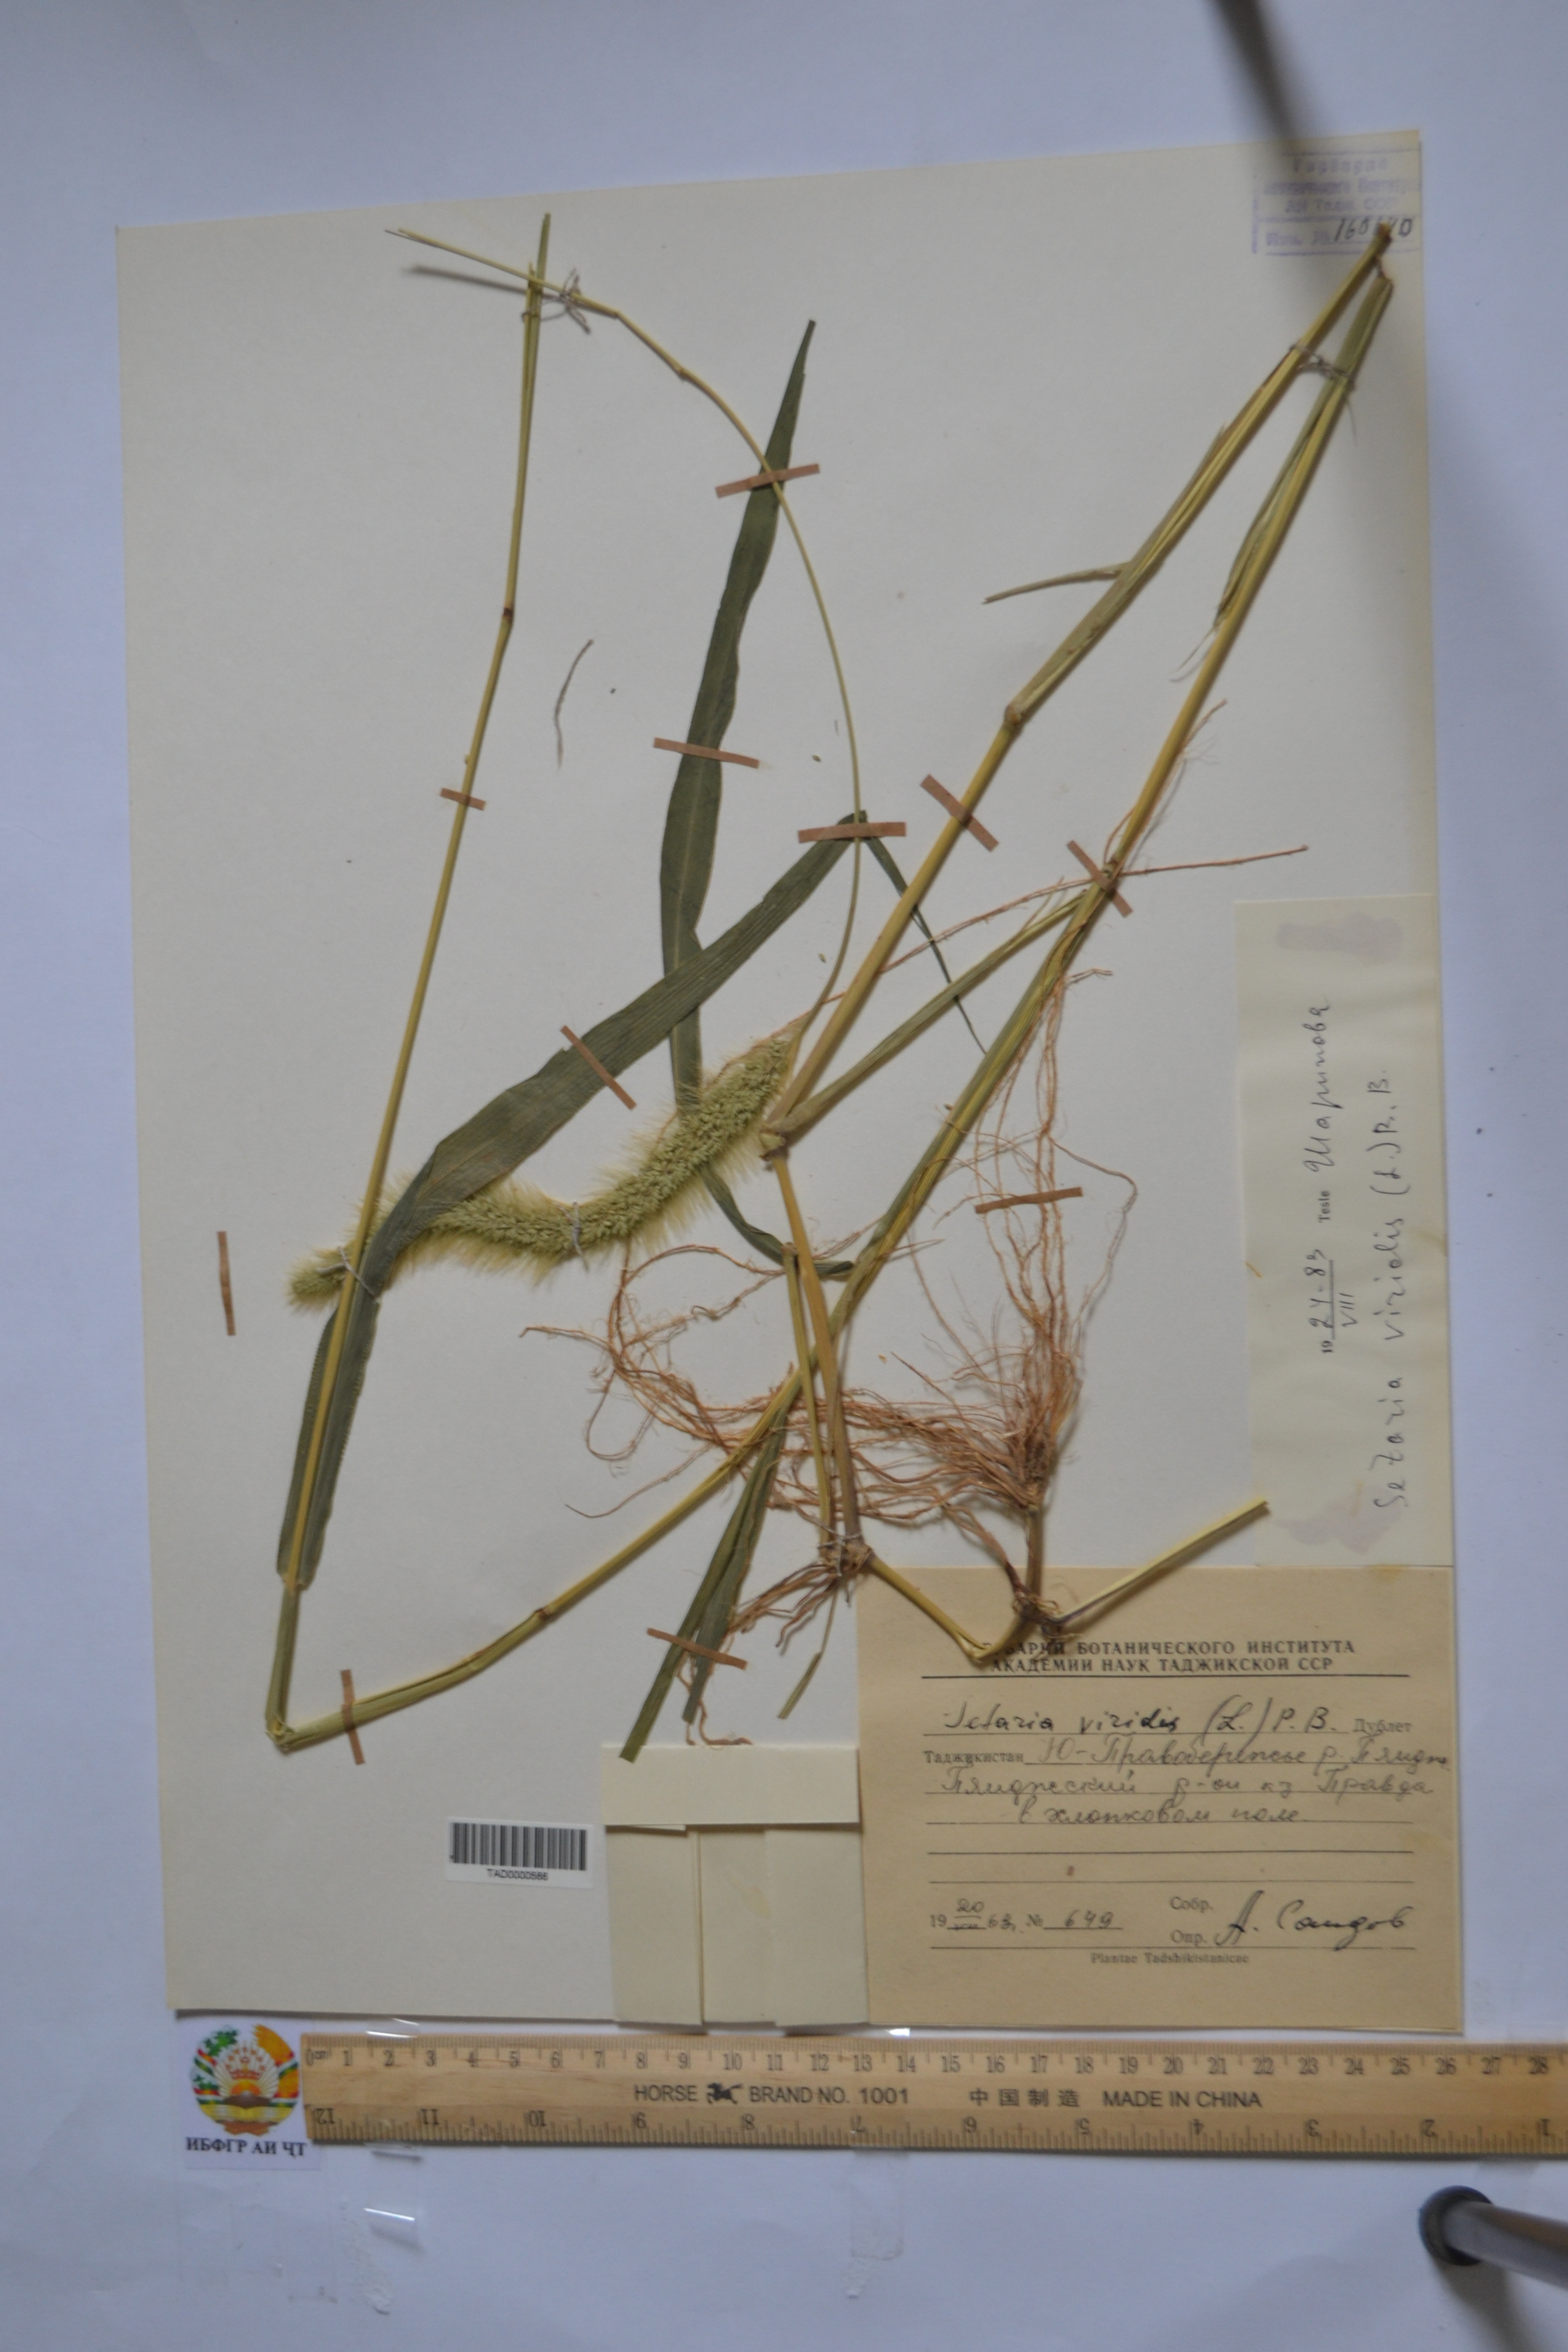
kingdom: Plantae
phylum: Tracheophyta
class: Liliopsida
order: Poales
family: Poaceae
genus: Setaria
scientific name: Setaria viridis
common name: Green bristlegrass
